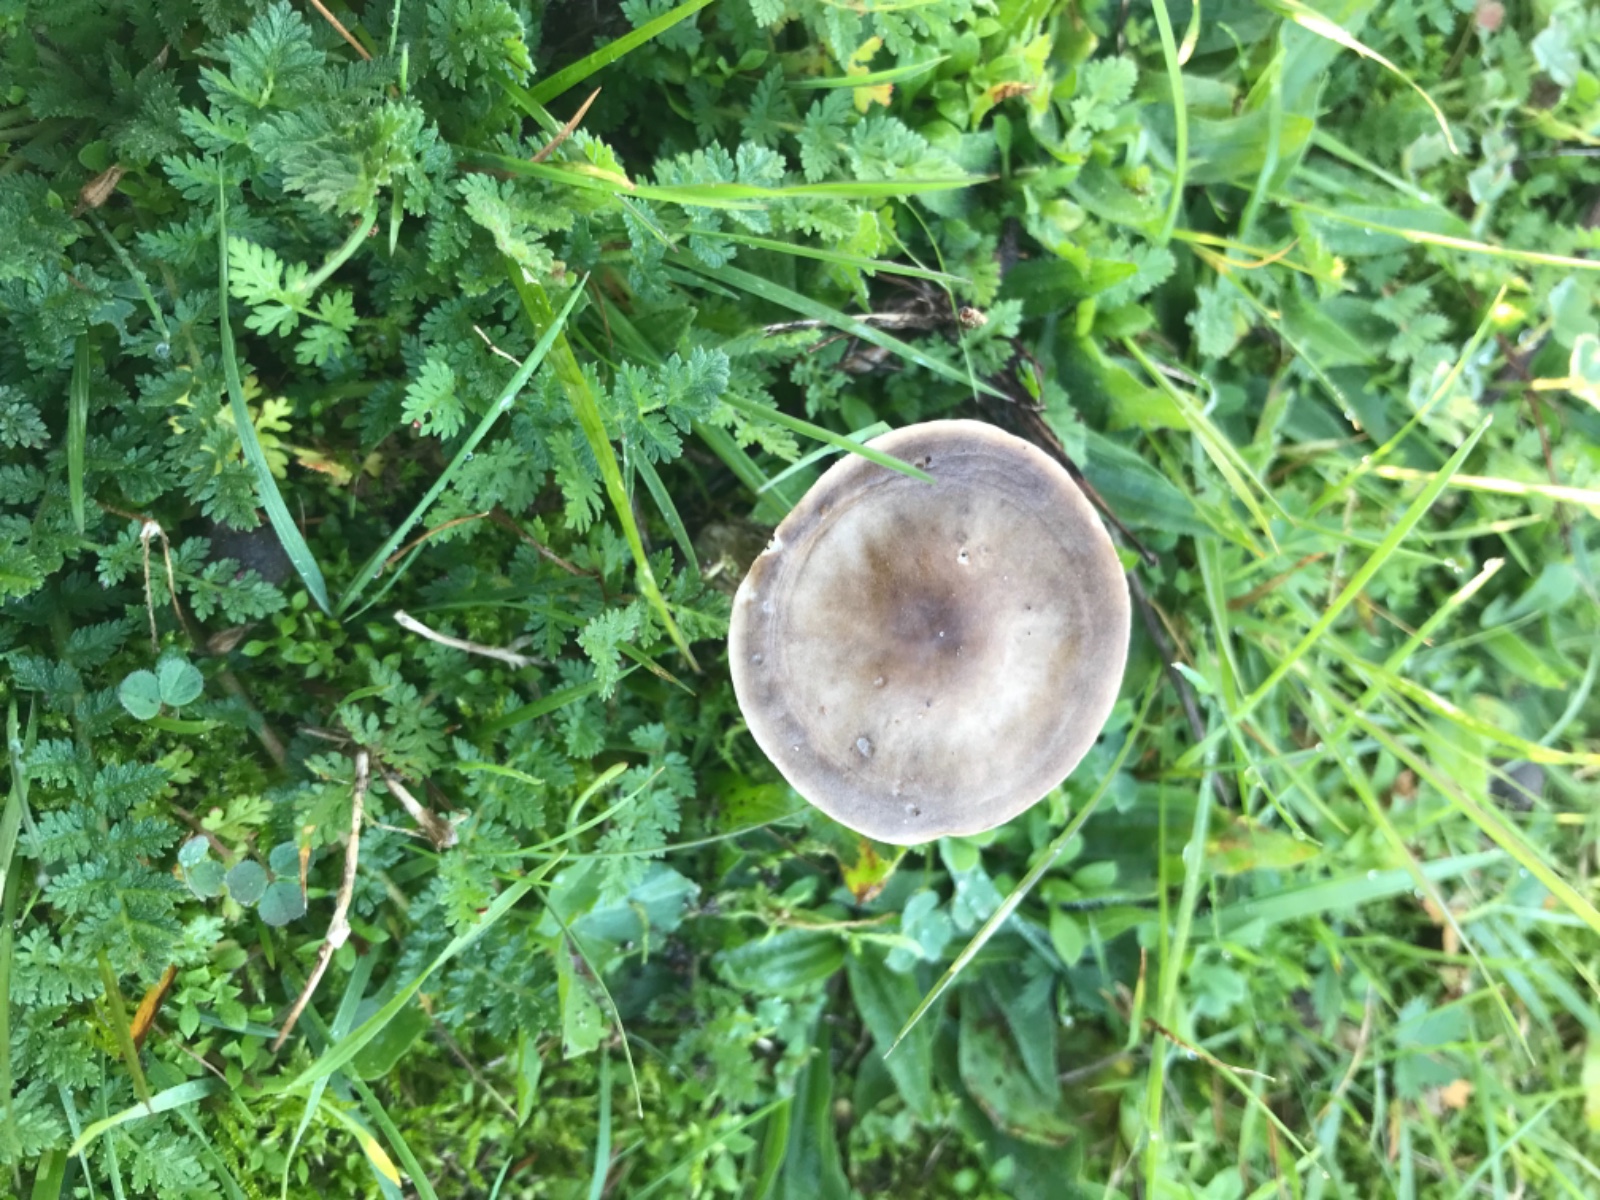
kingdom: Fungi
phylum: Basidiomycota
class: Agaricomycetes
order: Agaricales
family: Tricholomataceae
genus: Melanoleuca
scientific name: Melanoleuca polioleuca
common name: almindelig munkehat
